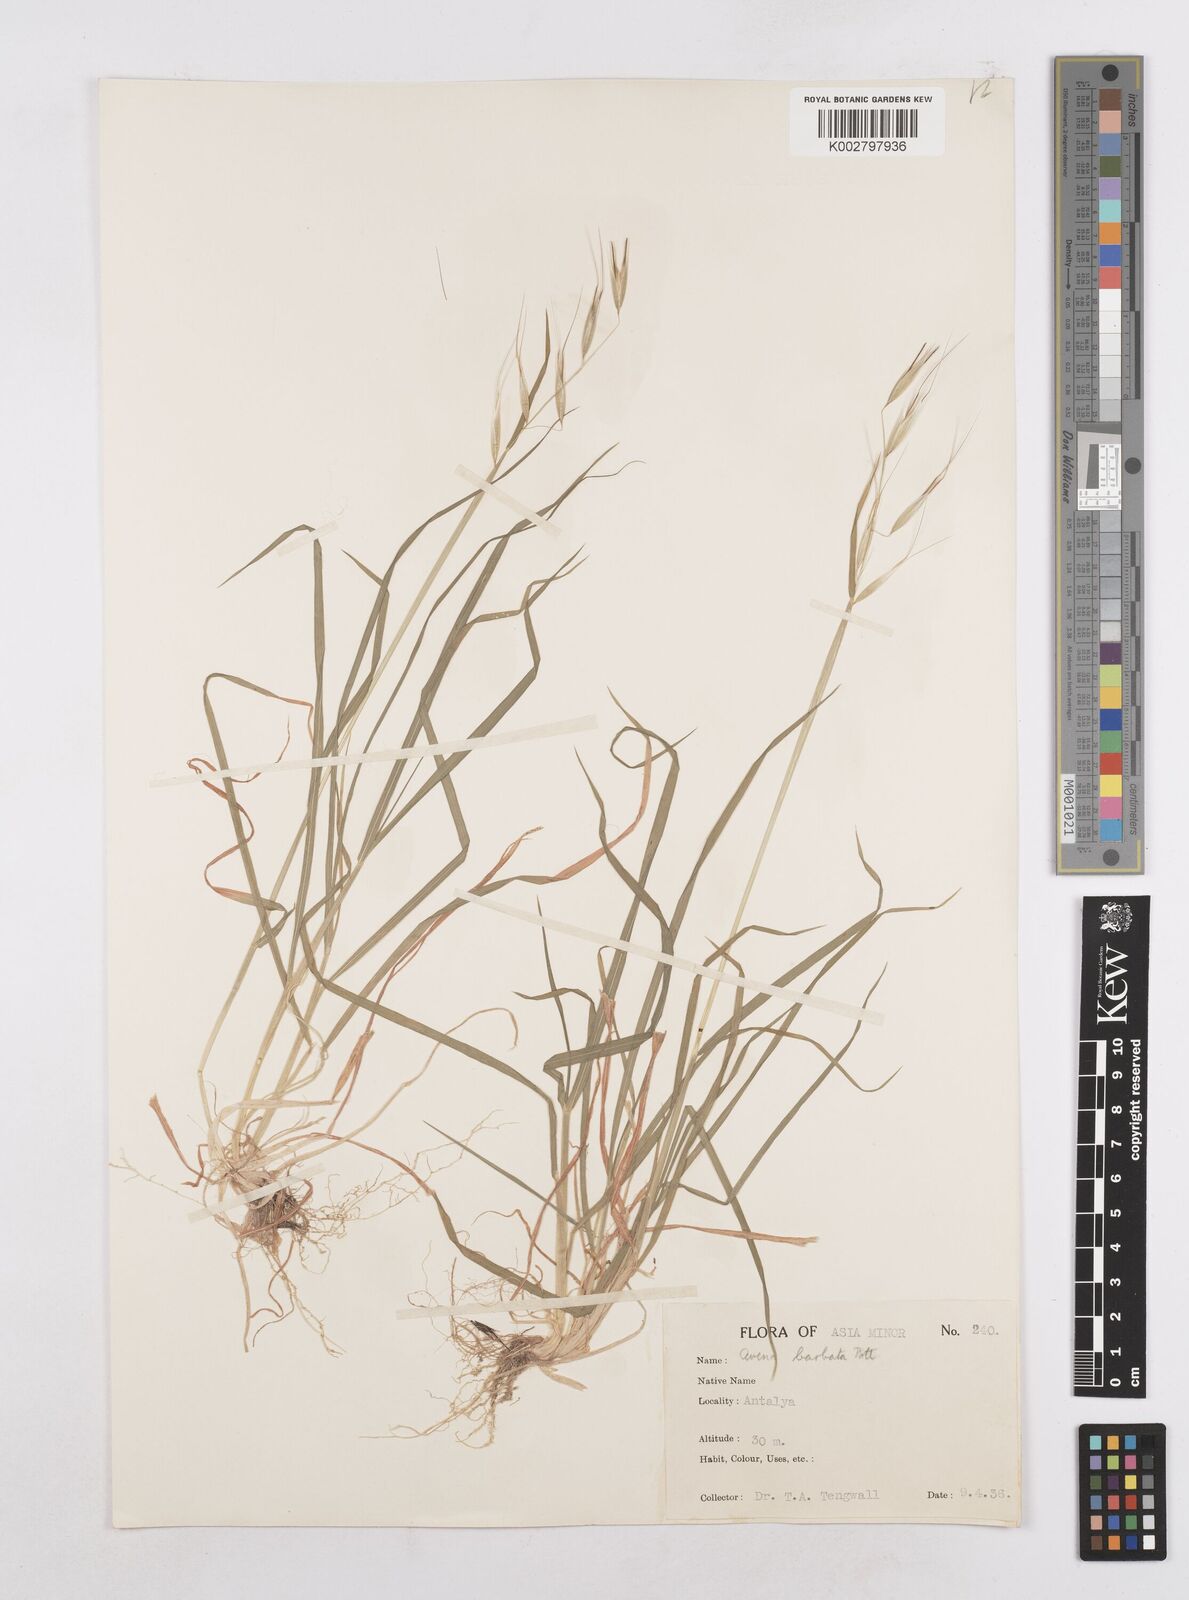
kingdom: Plantae
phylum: Tracheophyta
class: Liliopsida
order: Poales
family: Poaceae
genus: Avena
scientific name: Avena
